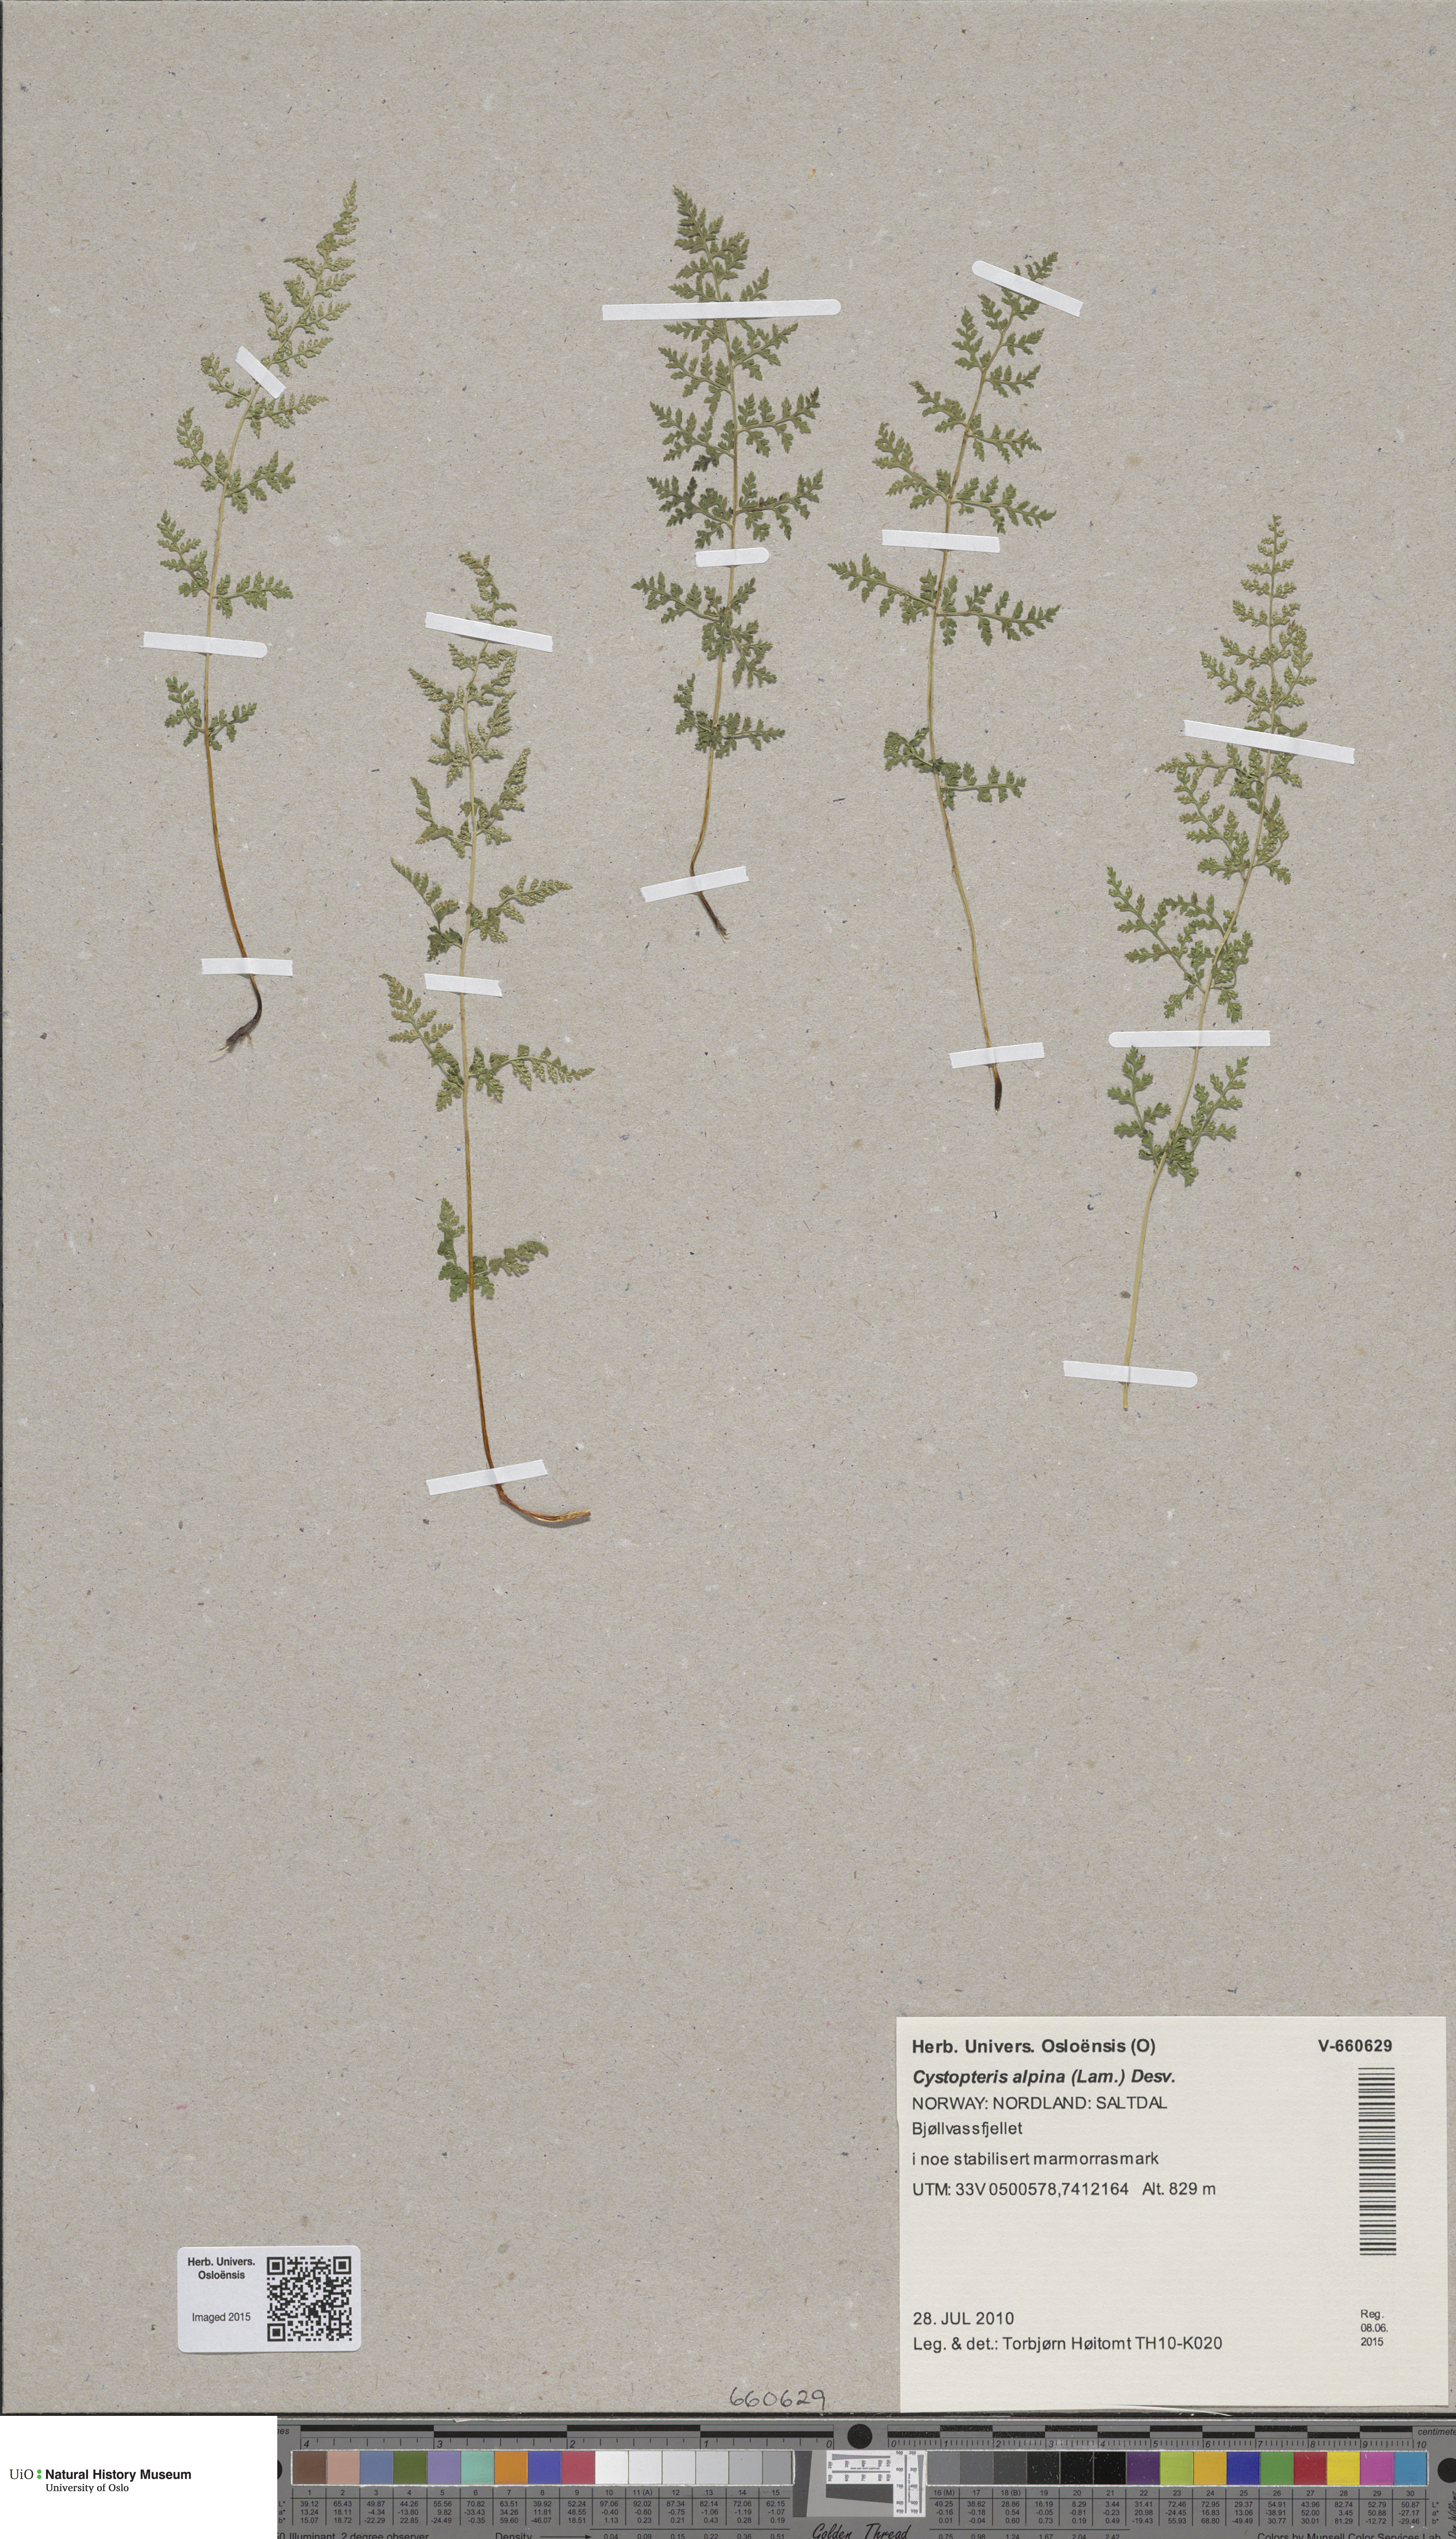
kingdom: Plantae
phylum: Tracheophyta
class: Polypodiopsida
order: Polypodiales
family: Cystopteridaceae
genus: Cystopteris
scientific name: Cystopteris alpina
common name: Alpine bladder-fern
